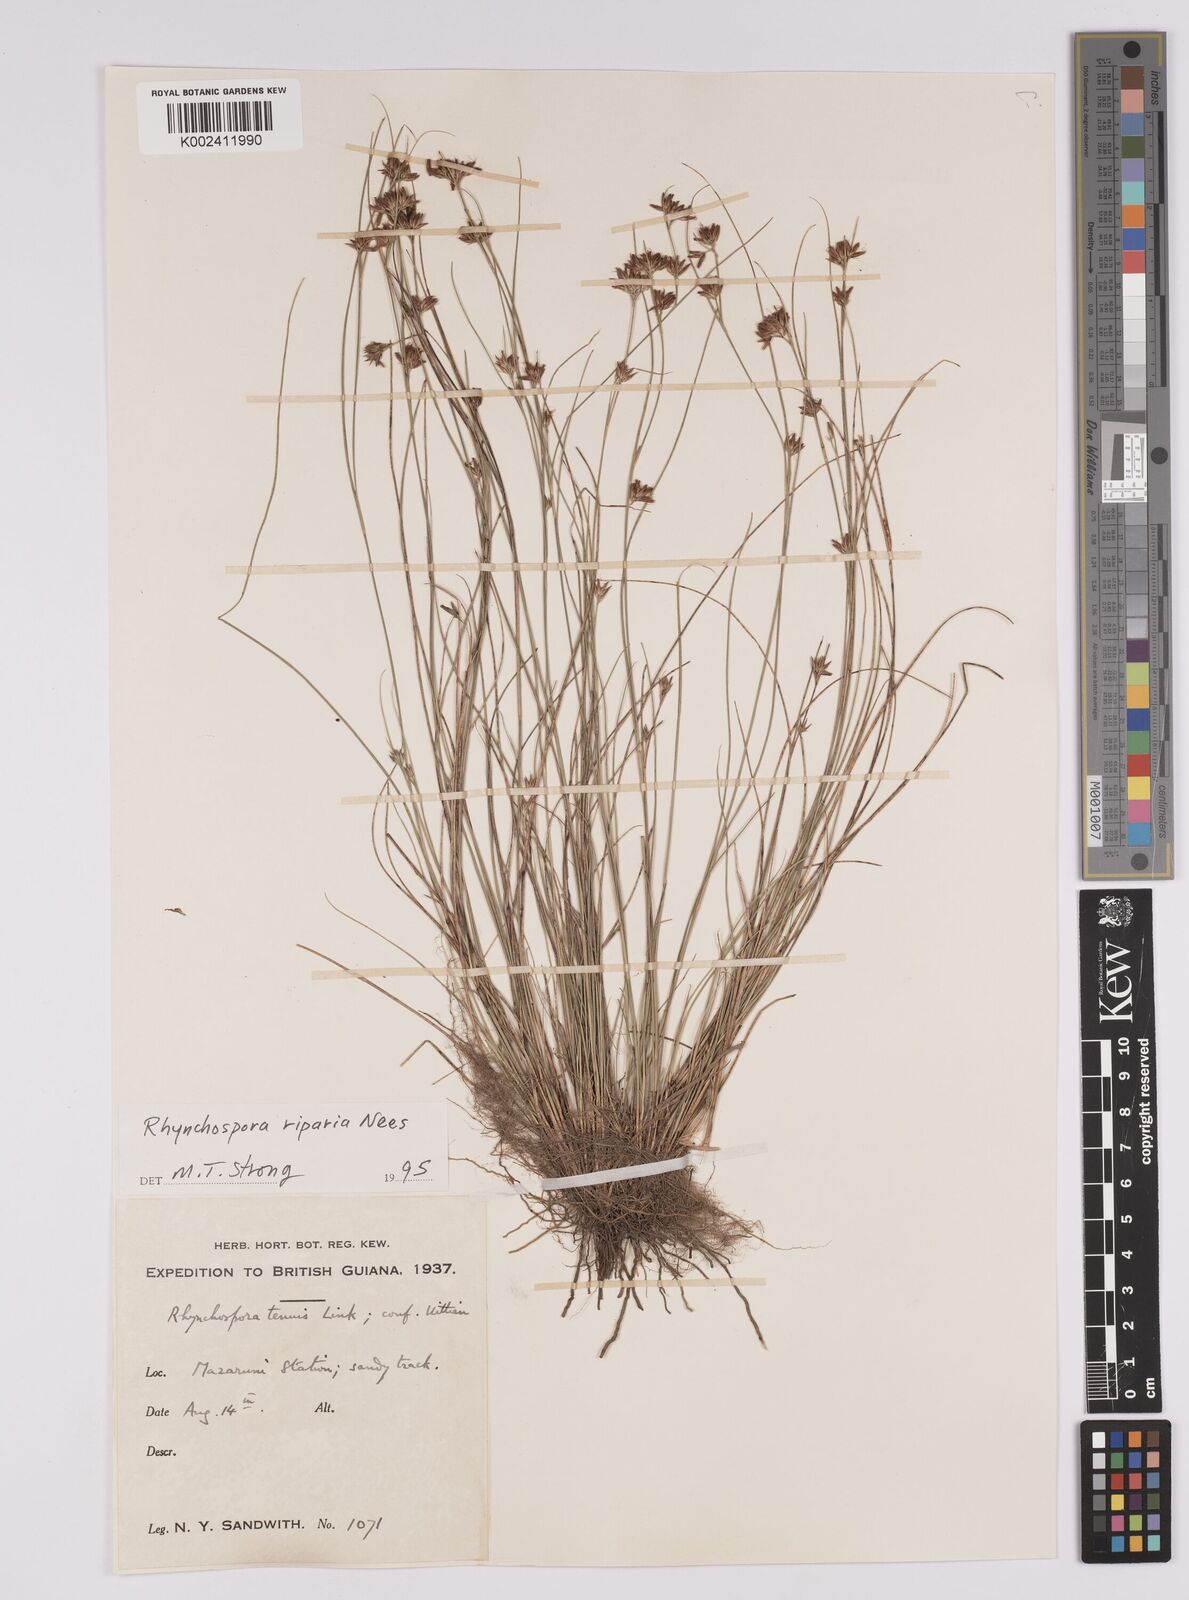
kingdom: Plantae
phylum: Tracheophyta
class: Liliopsida
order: Poales
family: Cyperaceae
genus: Rhynchospora
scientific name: Rhynchospora riparia
